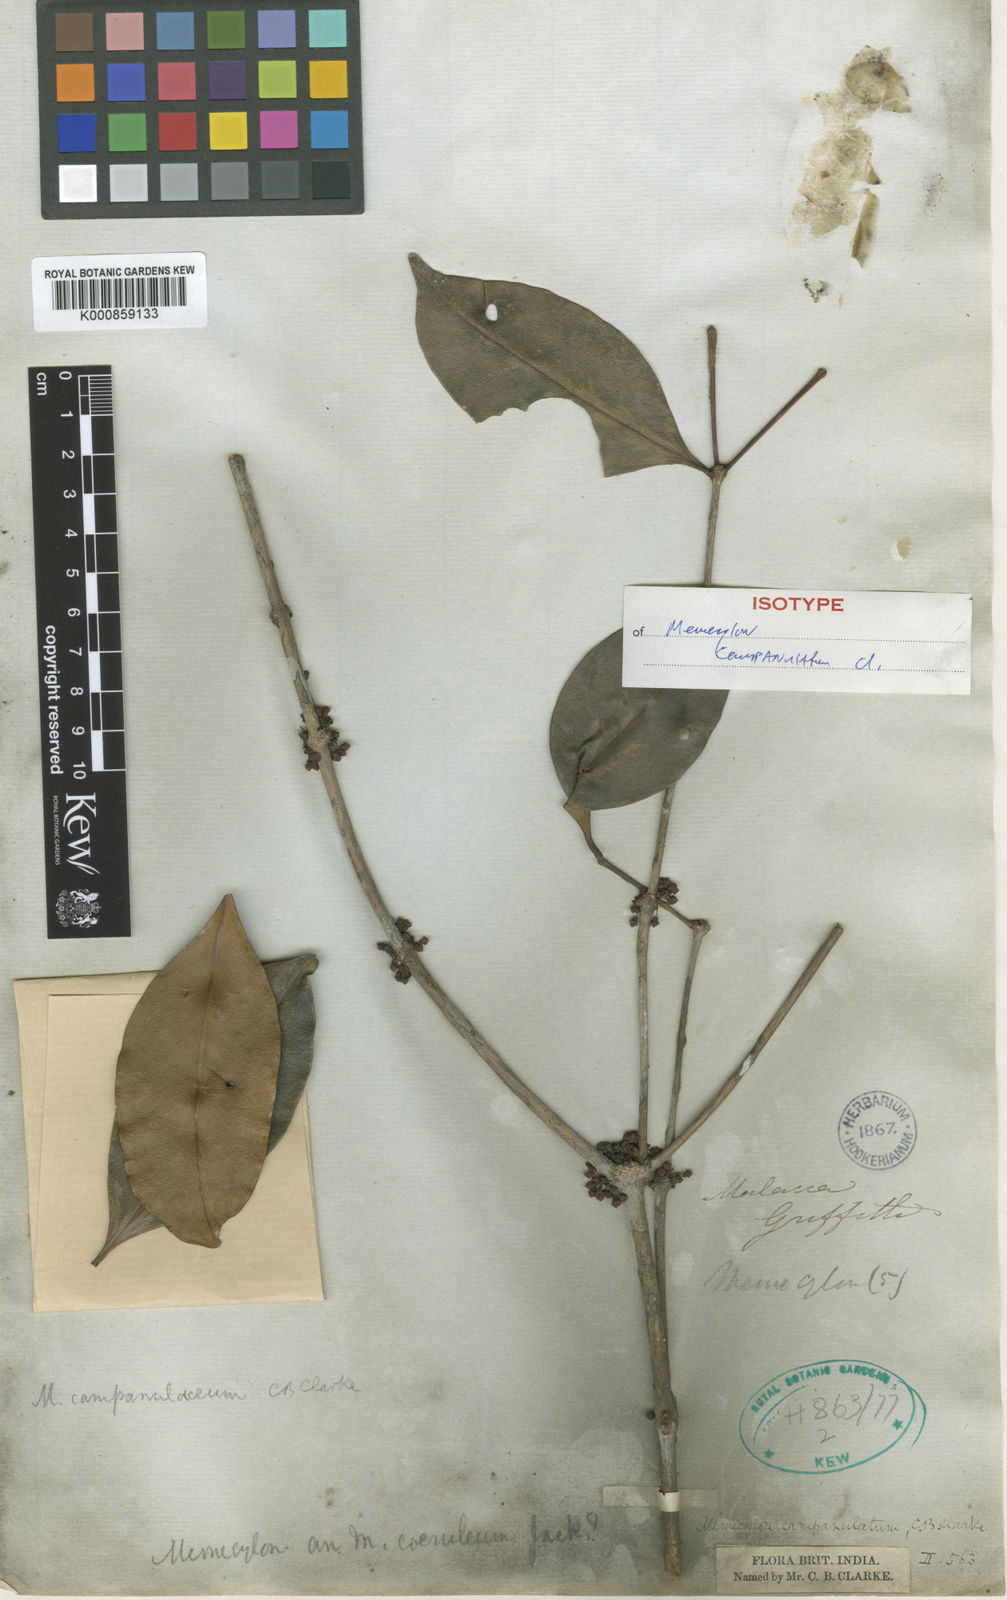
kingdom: Plantae
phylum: Tracheophyta
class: Magnoliopsida
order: Myrtales
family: Melastomataceae
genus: Memecylon
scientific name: Memecylon campanulatum
